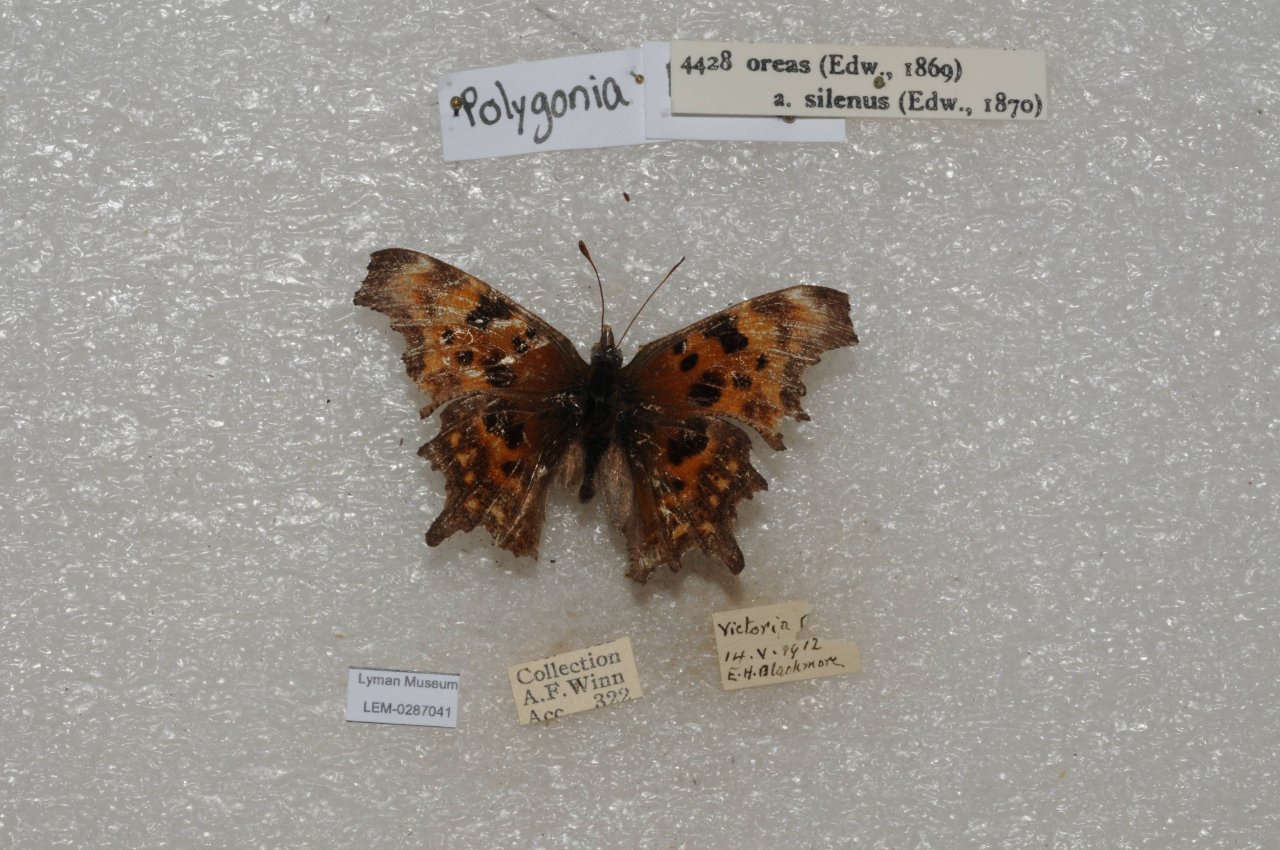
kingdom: Animalia
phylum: Arthropoda
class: Insecta
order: Lepidoptera
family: Nymphalidae
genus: Polygonia
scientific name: Polygonia oreas
